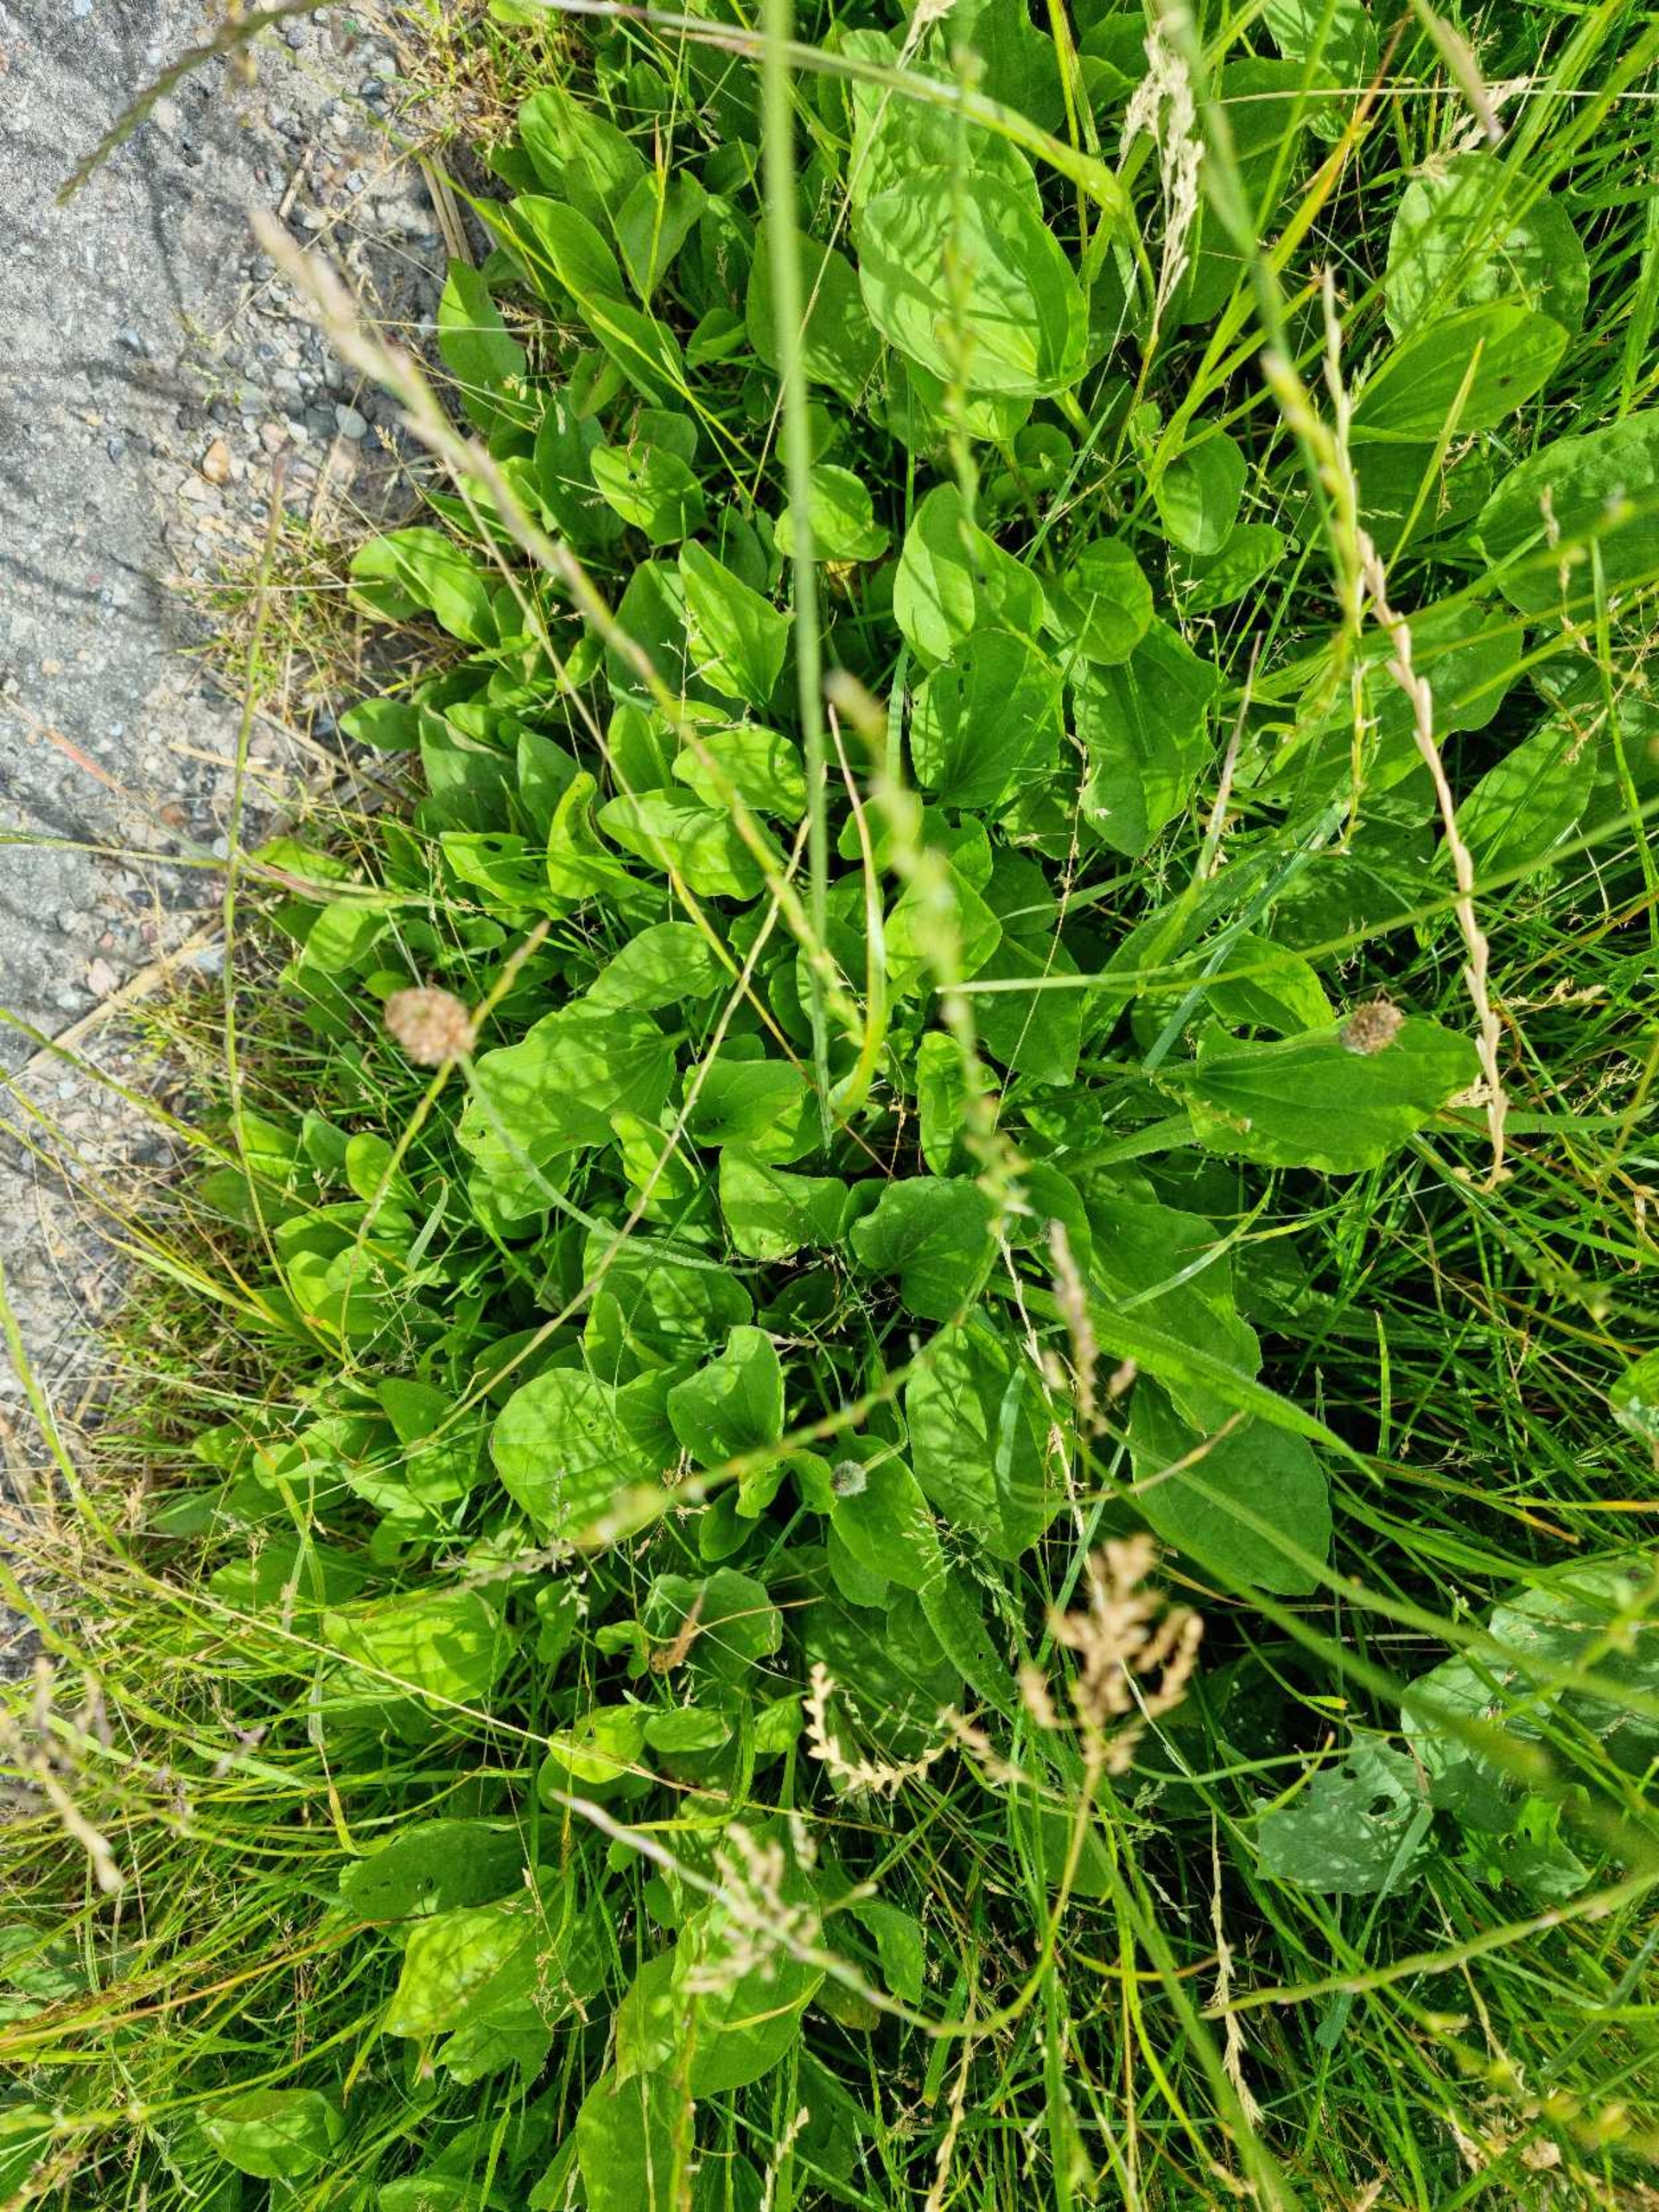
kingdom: Plantae
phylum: Tracheophyta
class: Magnoliopsida
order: Lamiales
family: Plantaginaceae
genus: Plantago
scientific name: Plantago major
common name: Glat vejbred
